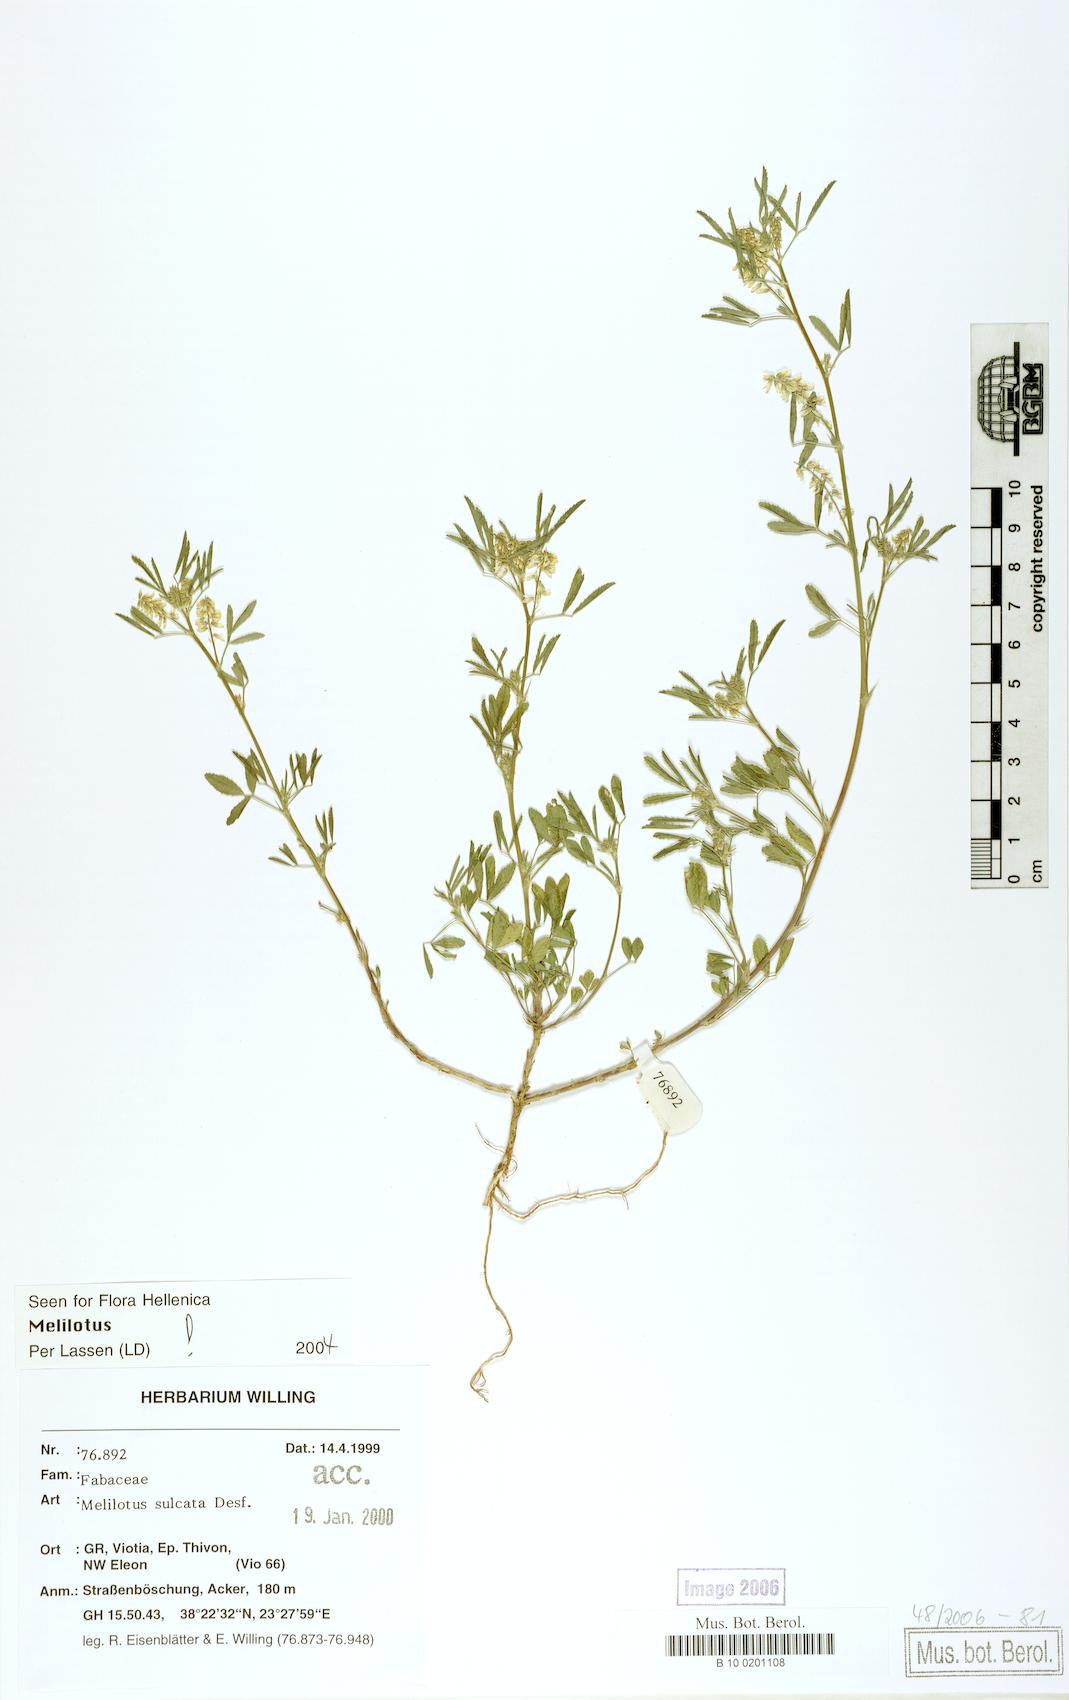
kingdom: Plantae
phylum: Tracheophyta
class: Magnoliopsida
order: Fabales
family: Fabaceae
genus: Melilotus
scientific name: Melilotus sulcatus
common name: Furrowed melilot
